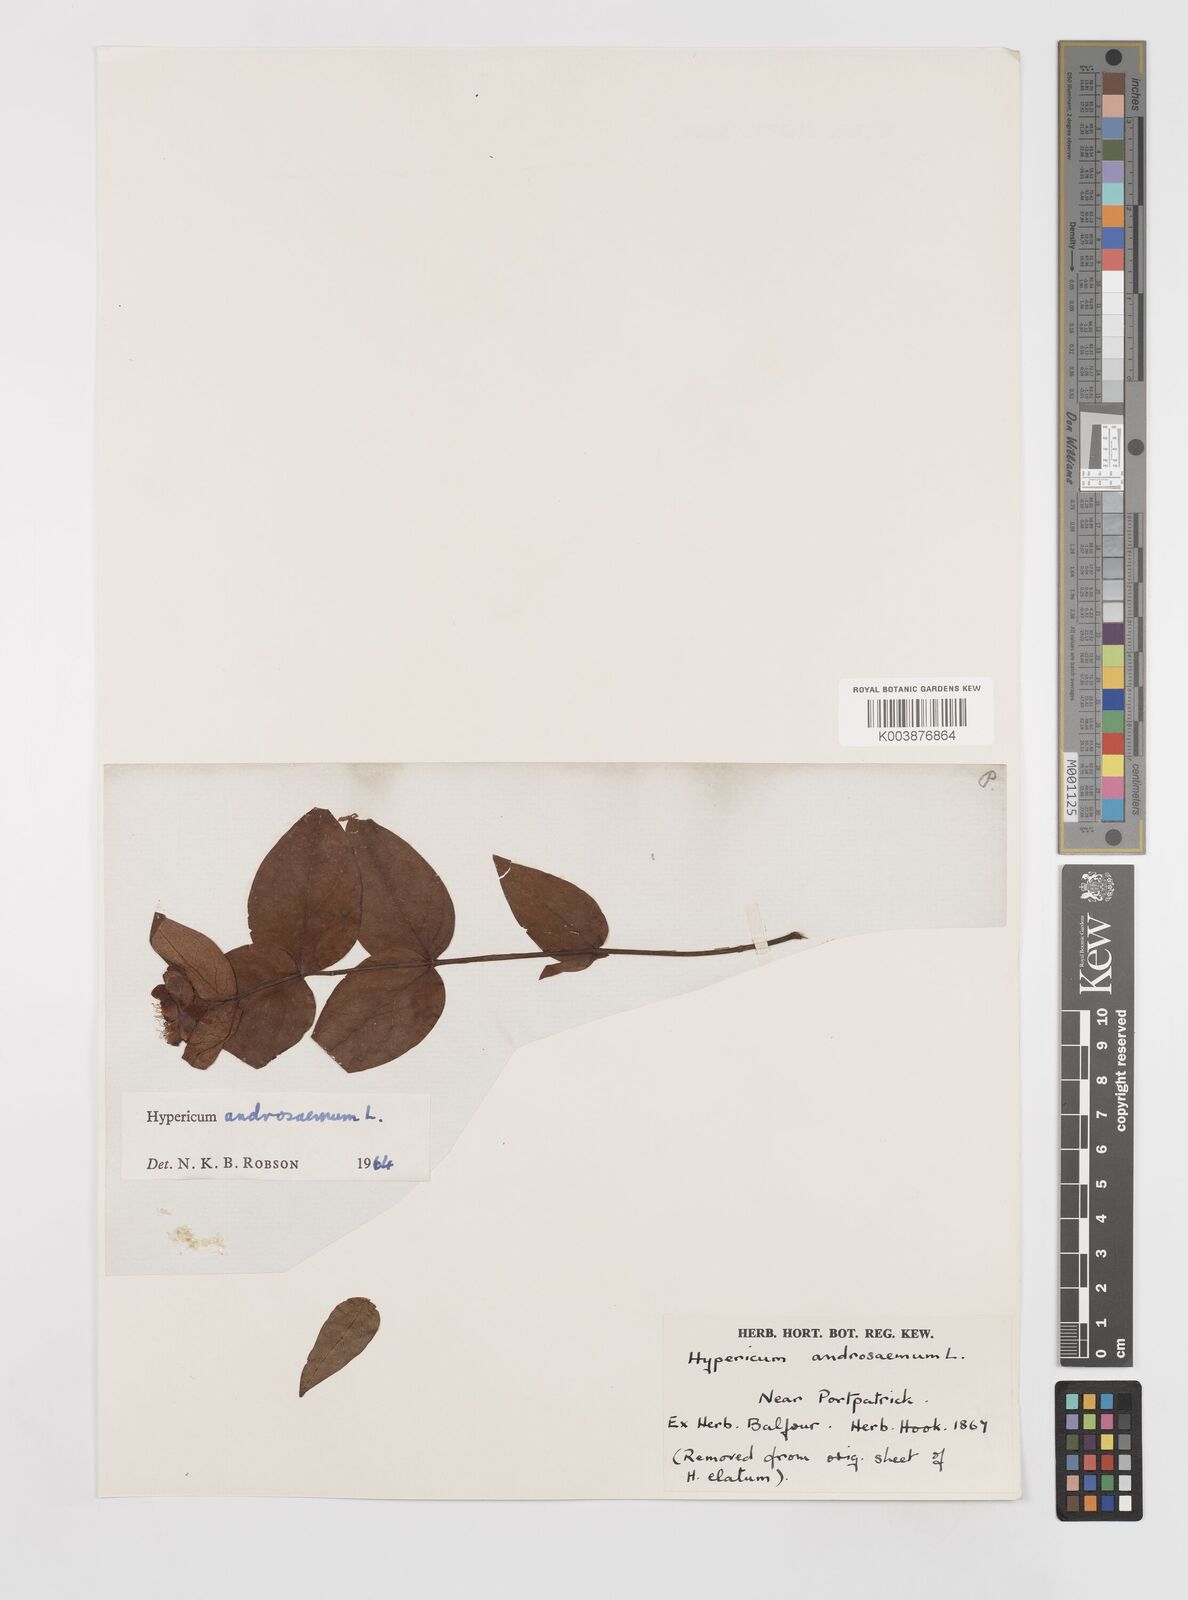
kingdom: Plantae
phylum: Tracheophyta
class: Magnoliopsida
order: Malpighiales
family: Hypericaceae
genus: Hypericum
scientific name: Hypericum androsaemum
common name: Sweet-amber
